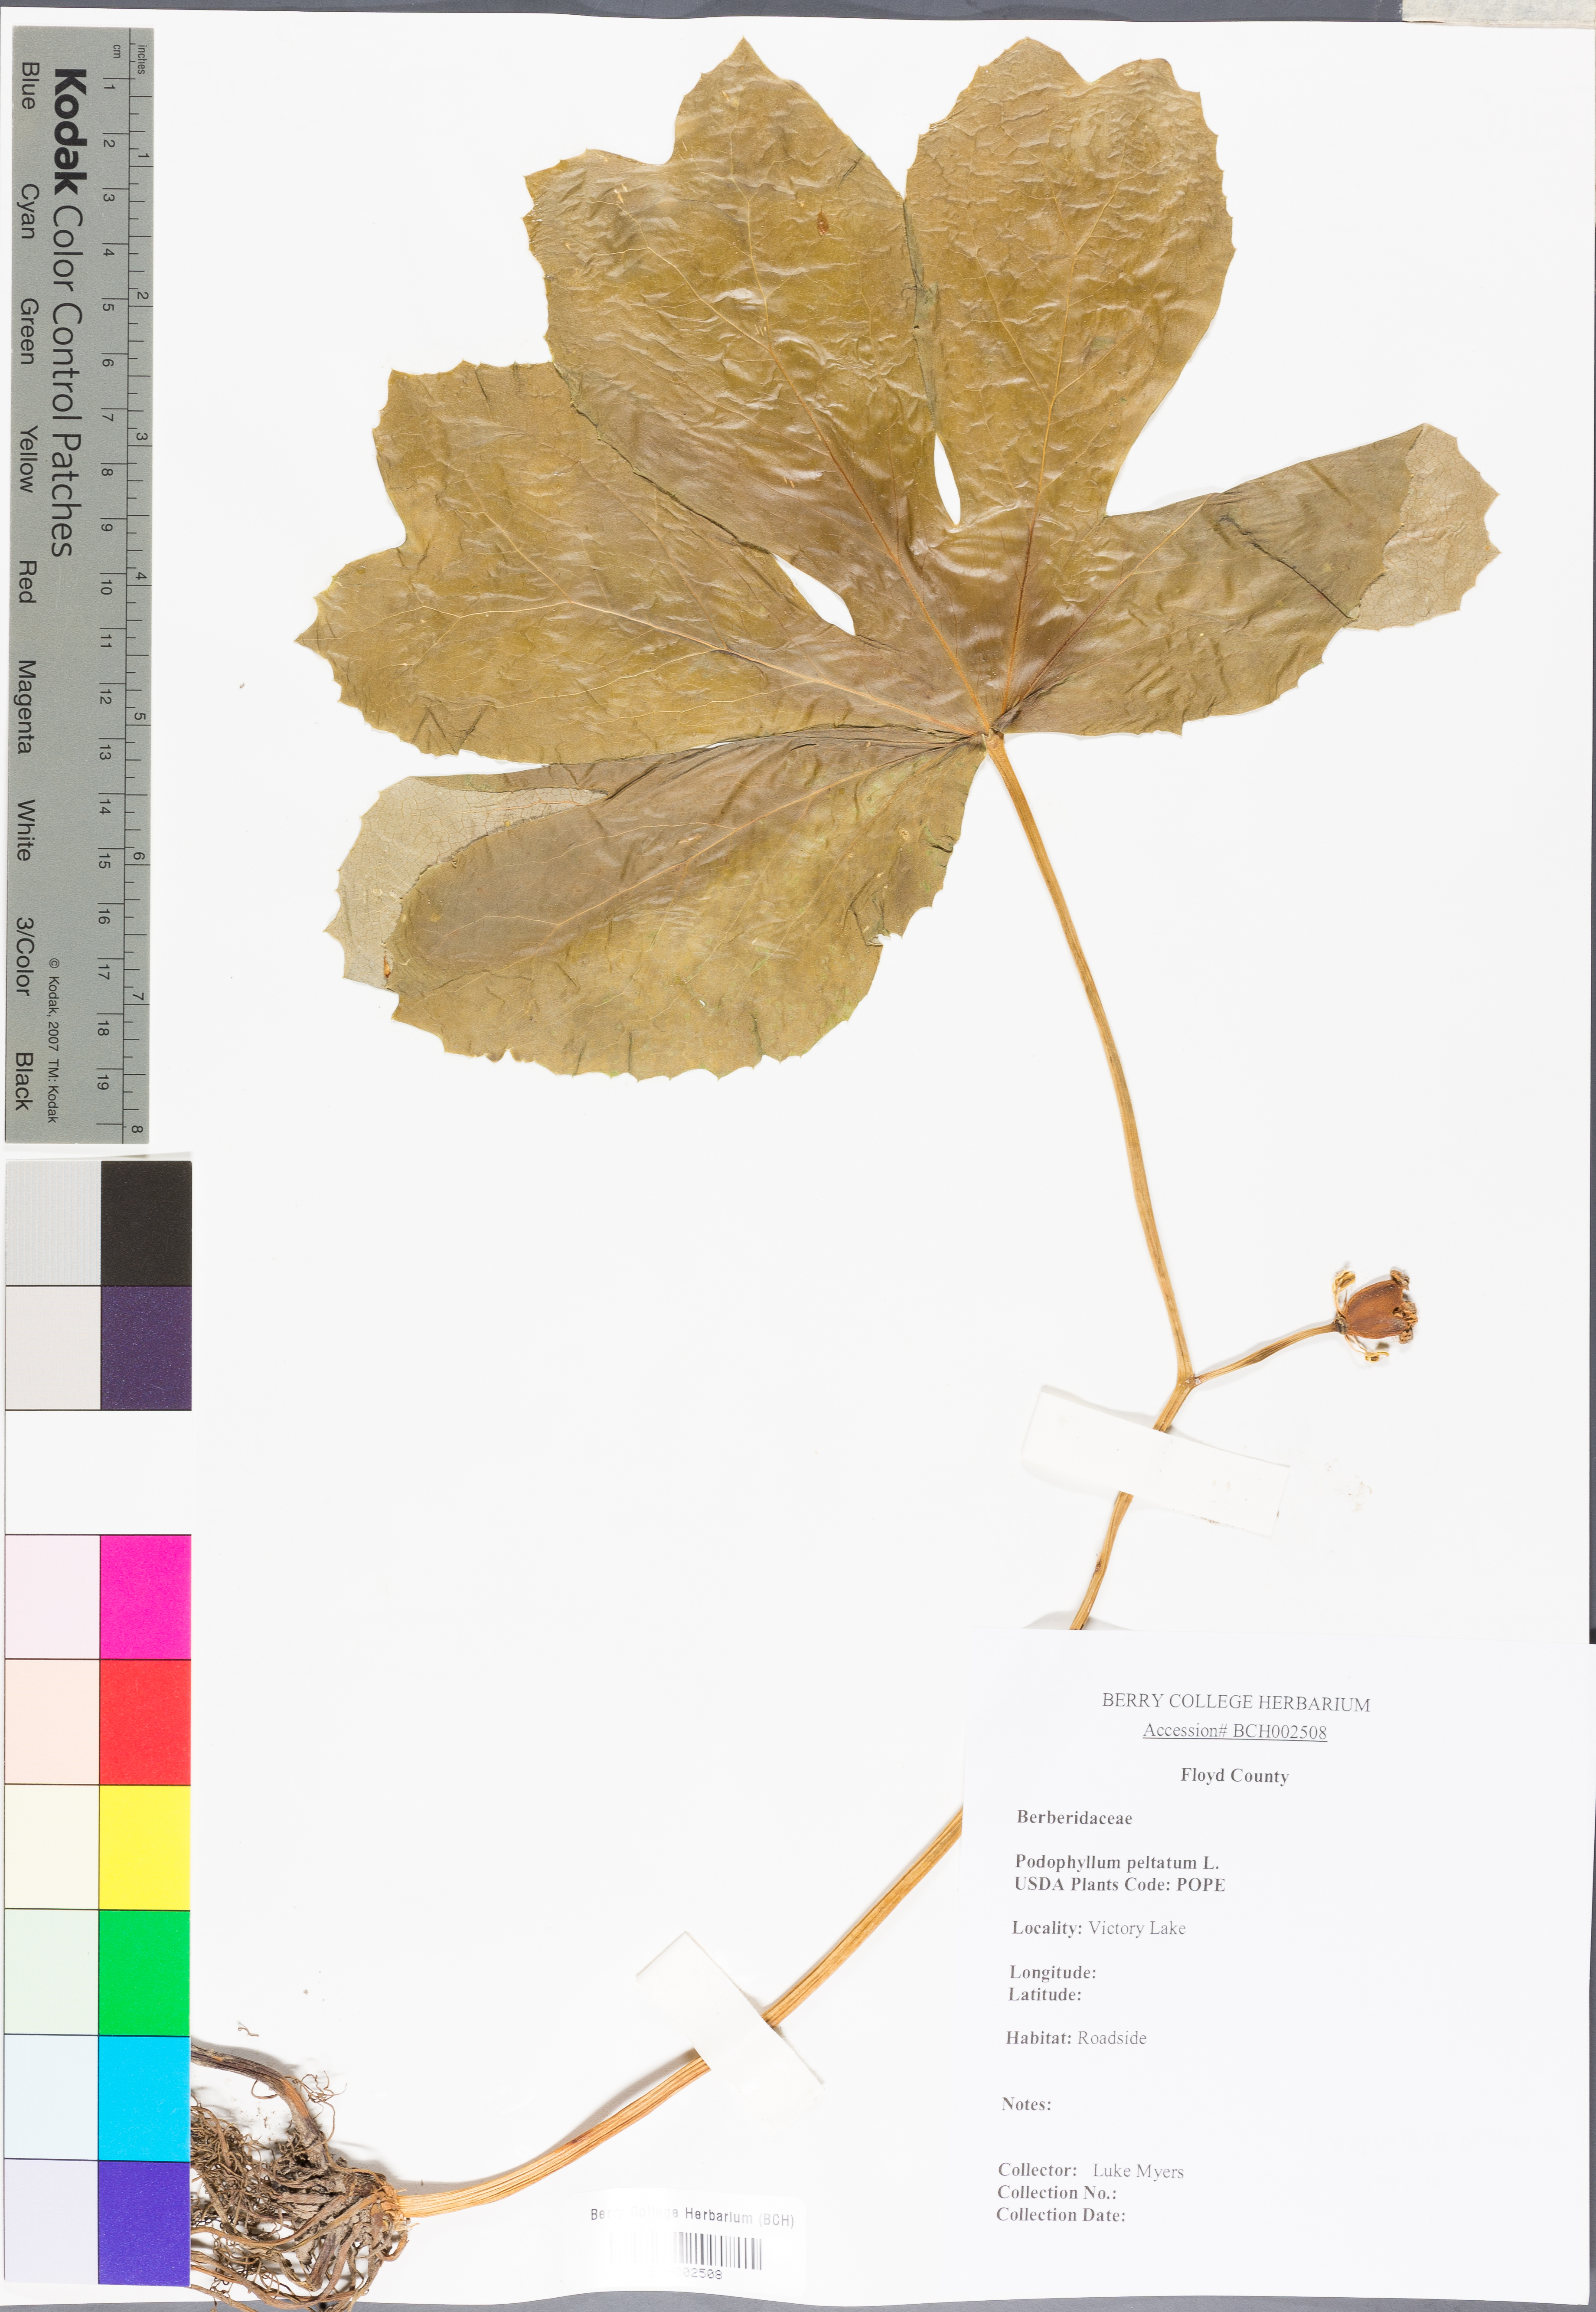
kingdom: Plantae
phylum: Tracheophyta
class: Magnoliopsida
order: Ranunculales
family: Berberidaceae
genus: Podophyllum
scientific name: Podophyllum peltatum
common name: Wild mandrake
